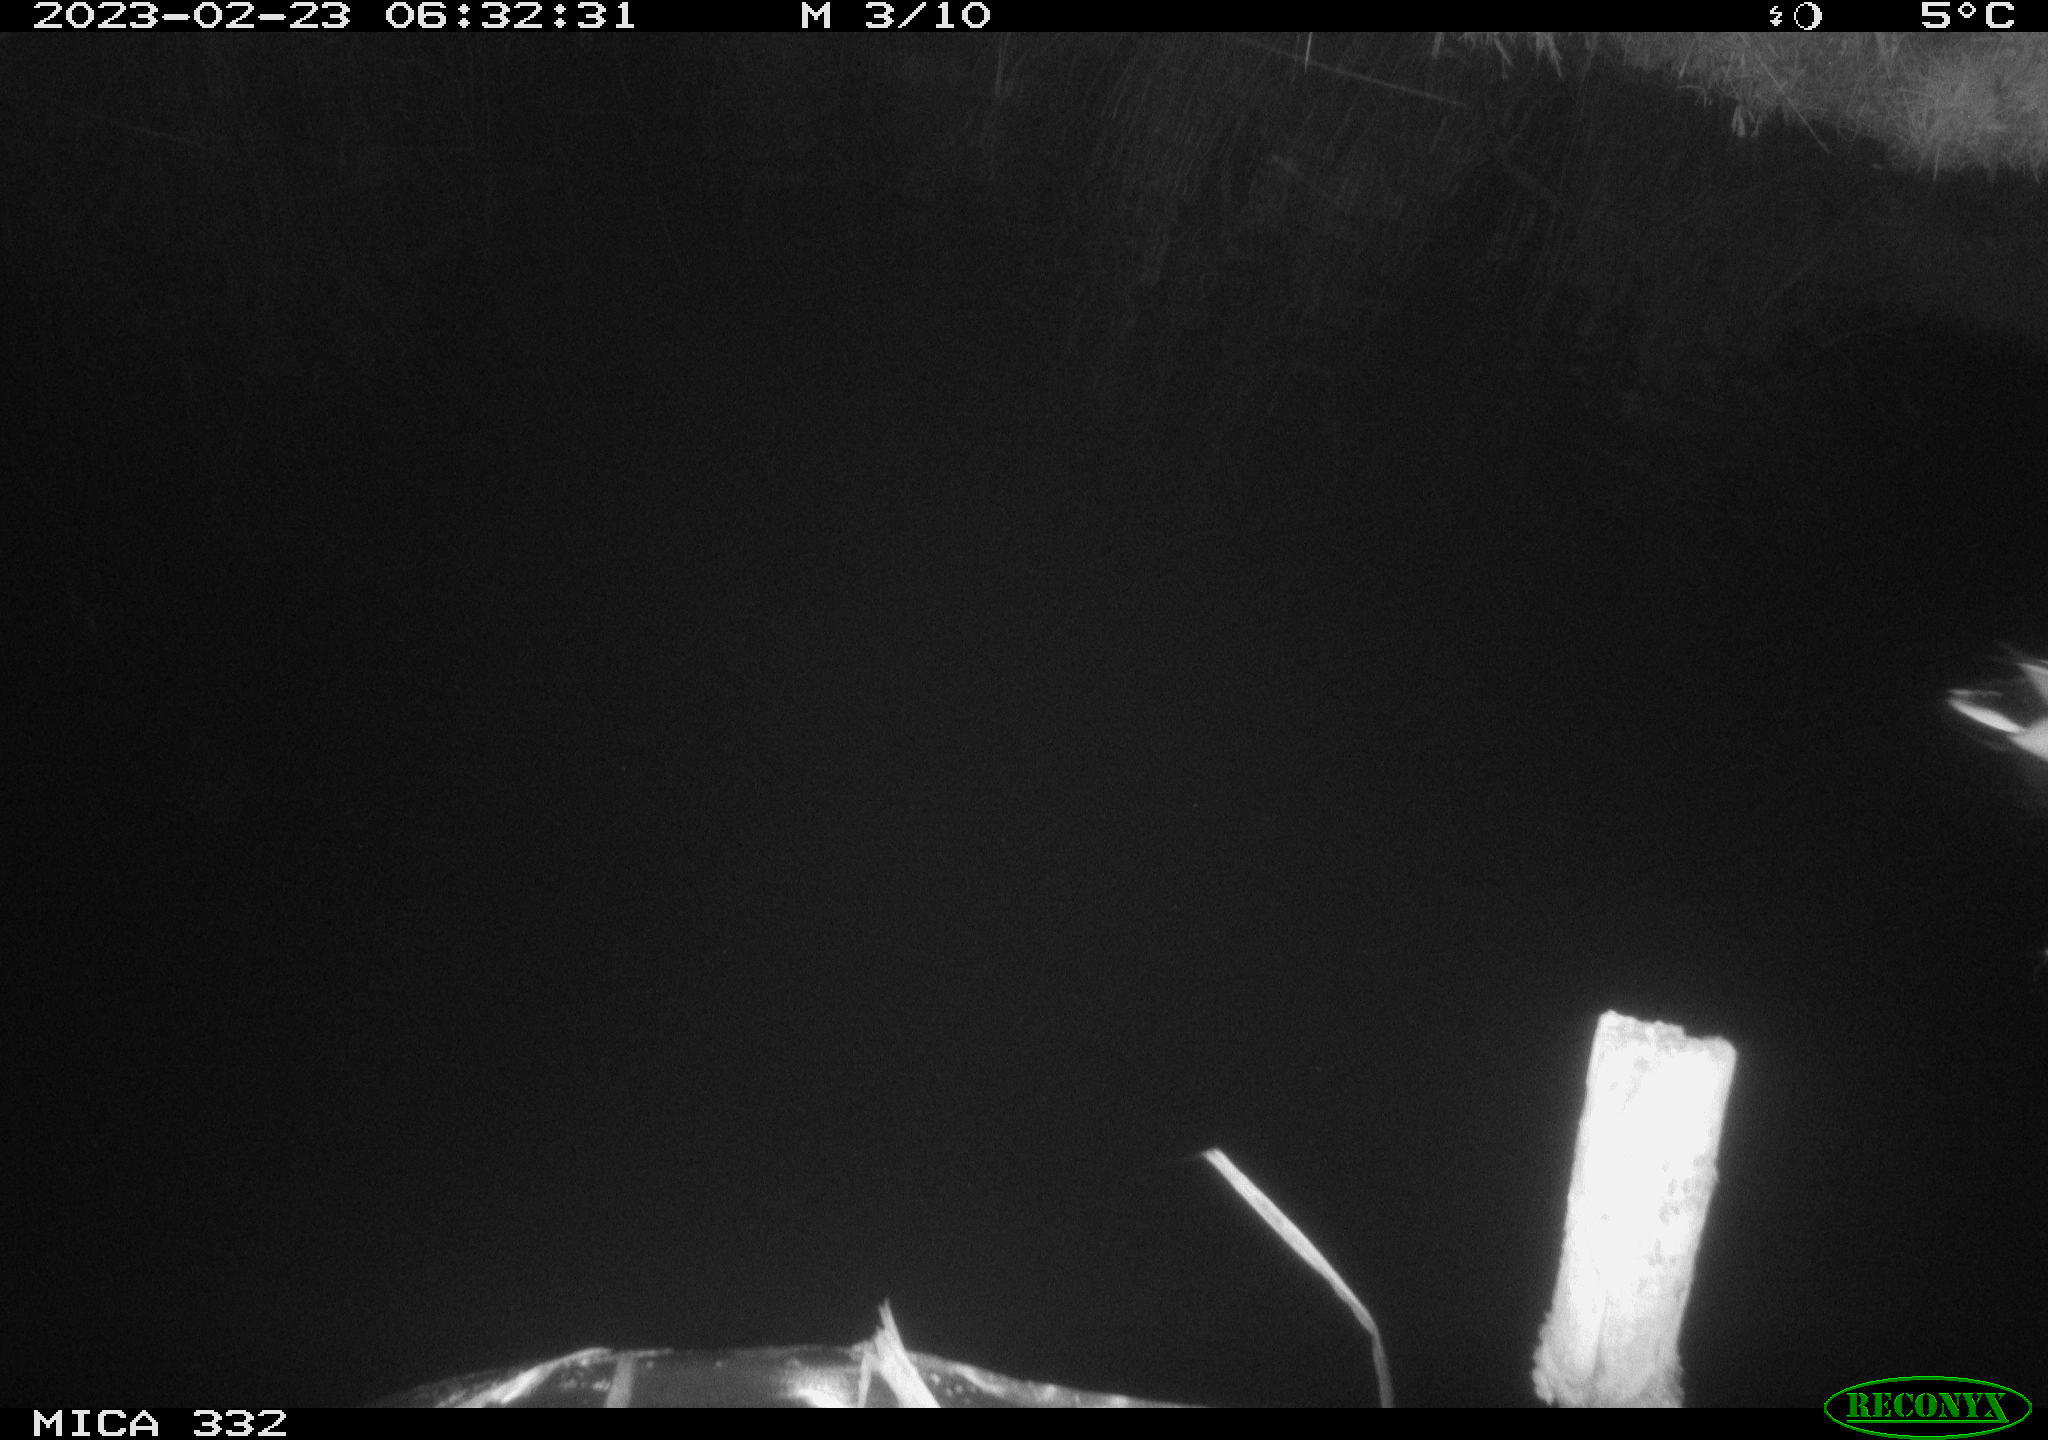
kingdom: Animalia
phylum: Chordata
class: Aves
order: Anseriformes
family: Anatidae
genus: Anas
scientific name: Anas
